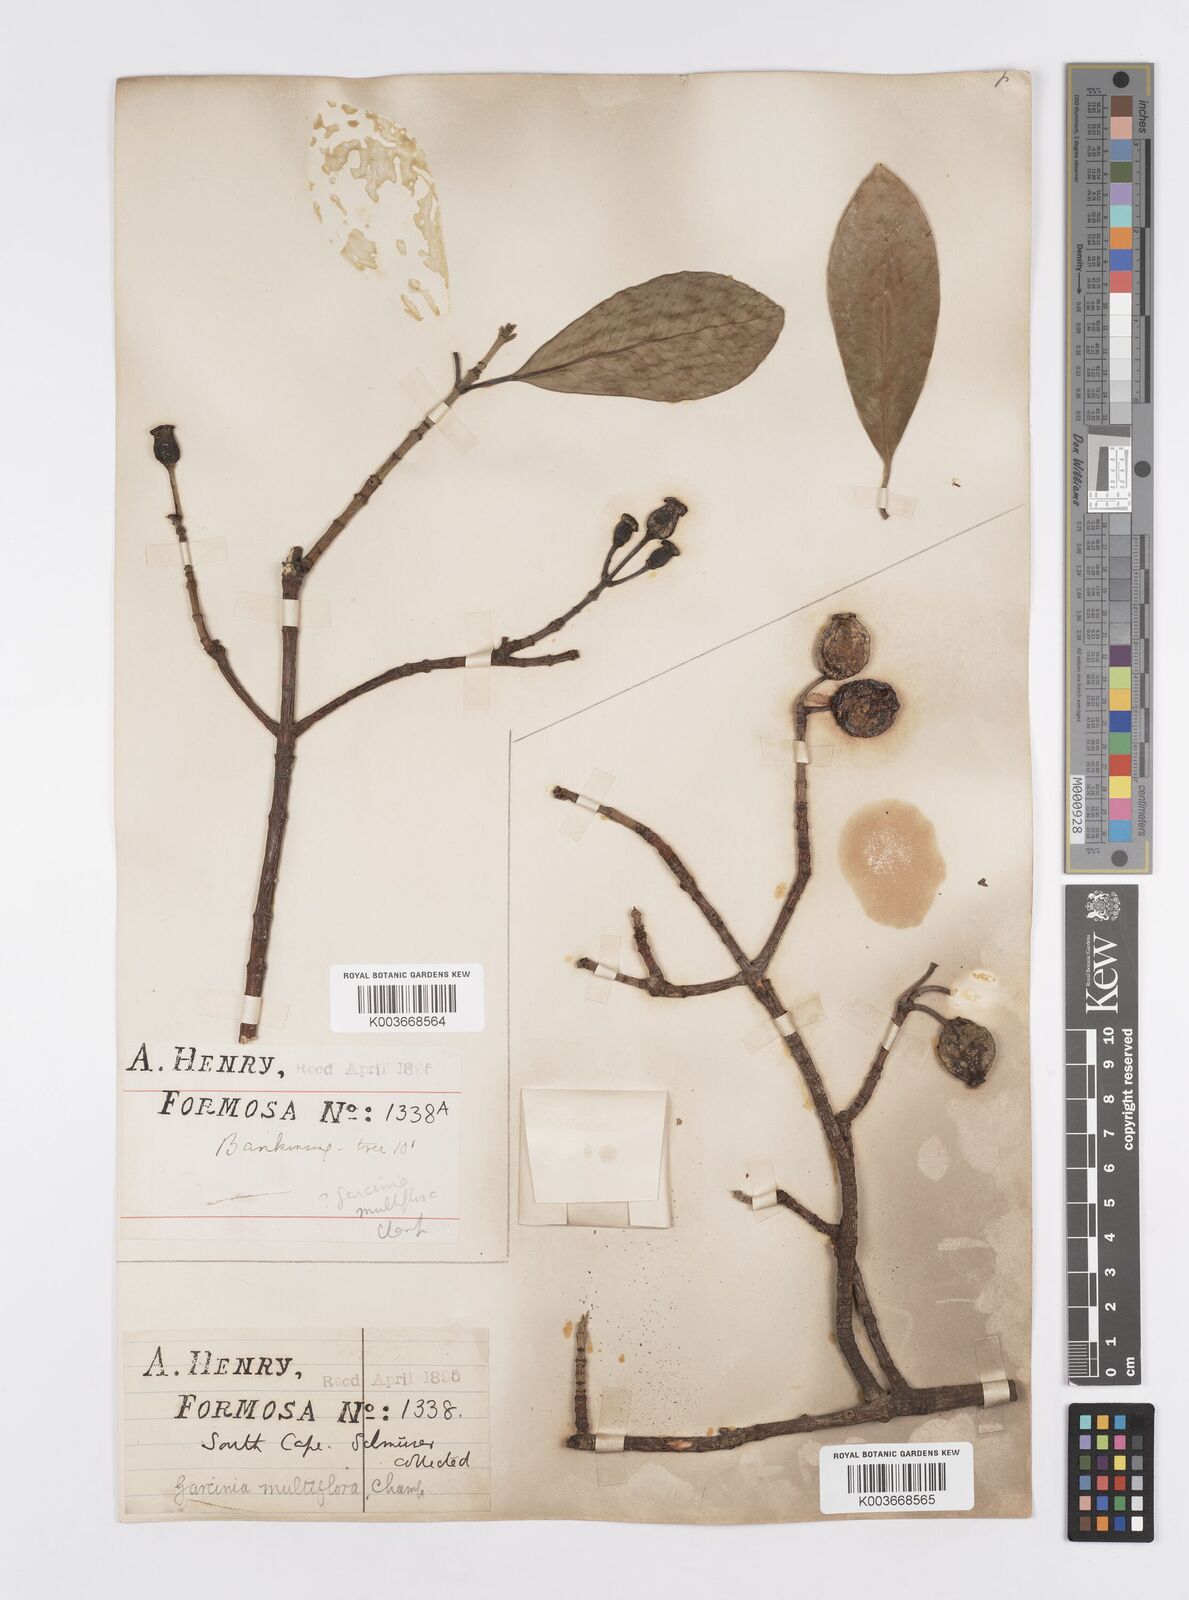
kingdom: Plantae
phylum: Tracheophyta
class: Magnoliopsida
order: Malpighiales
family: Clusiaceae
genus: Garcinia
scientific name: Garcinia multiflora
